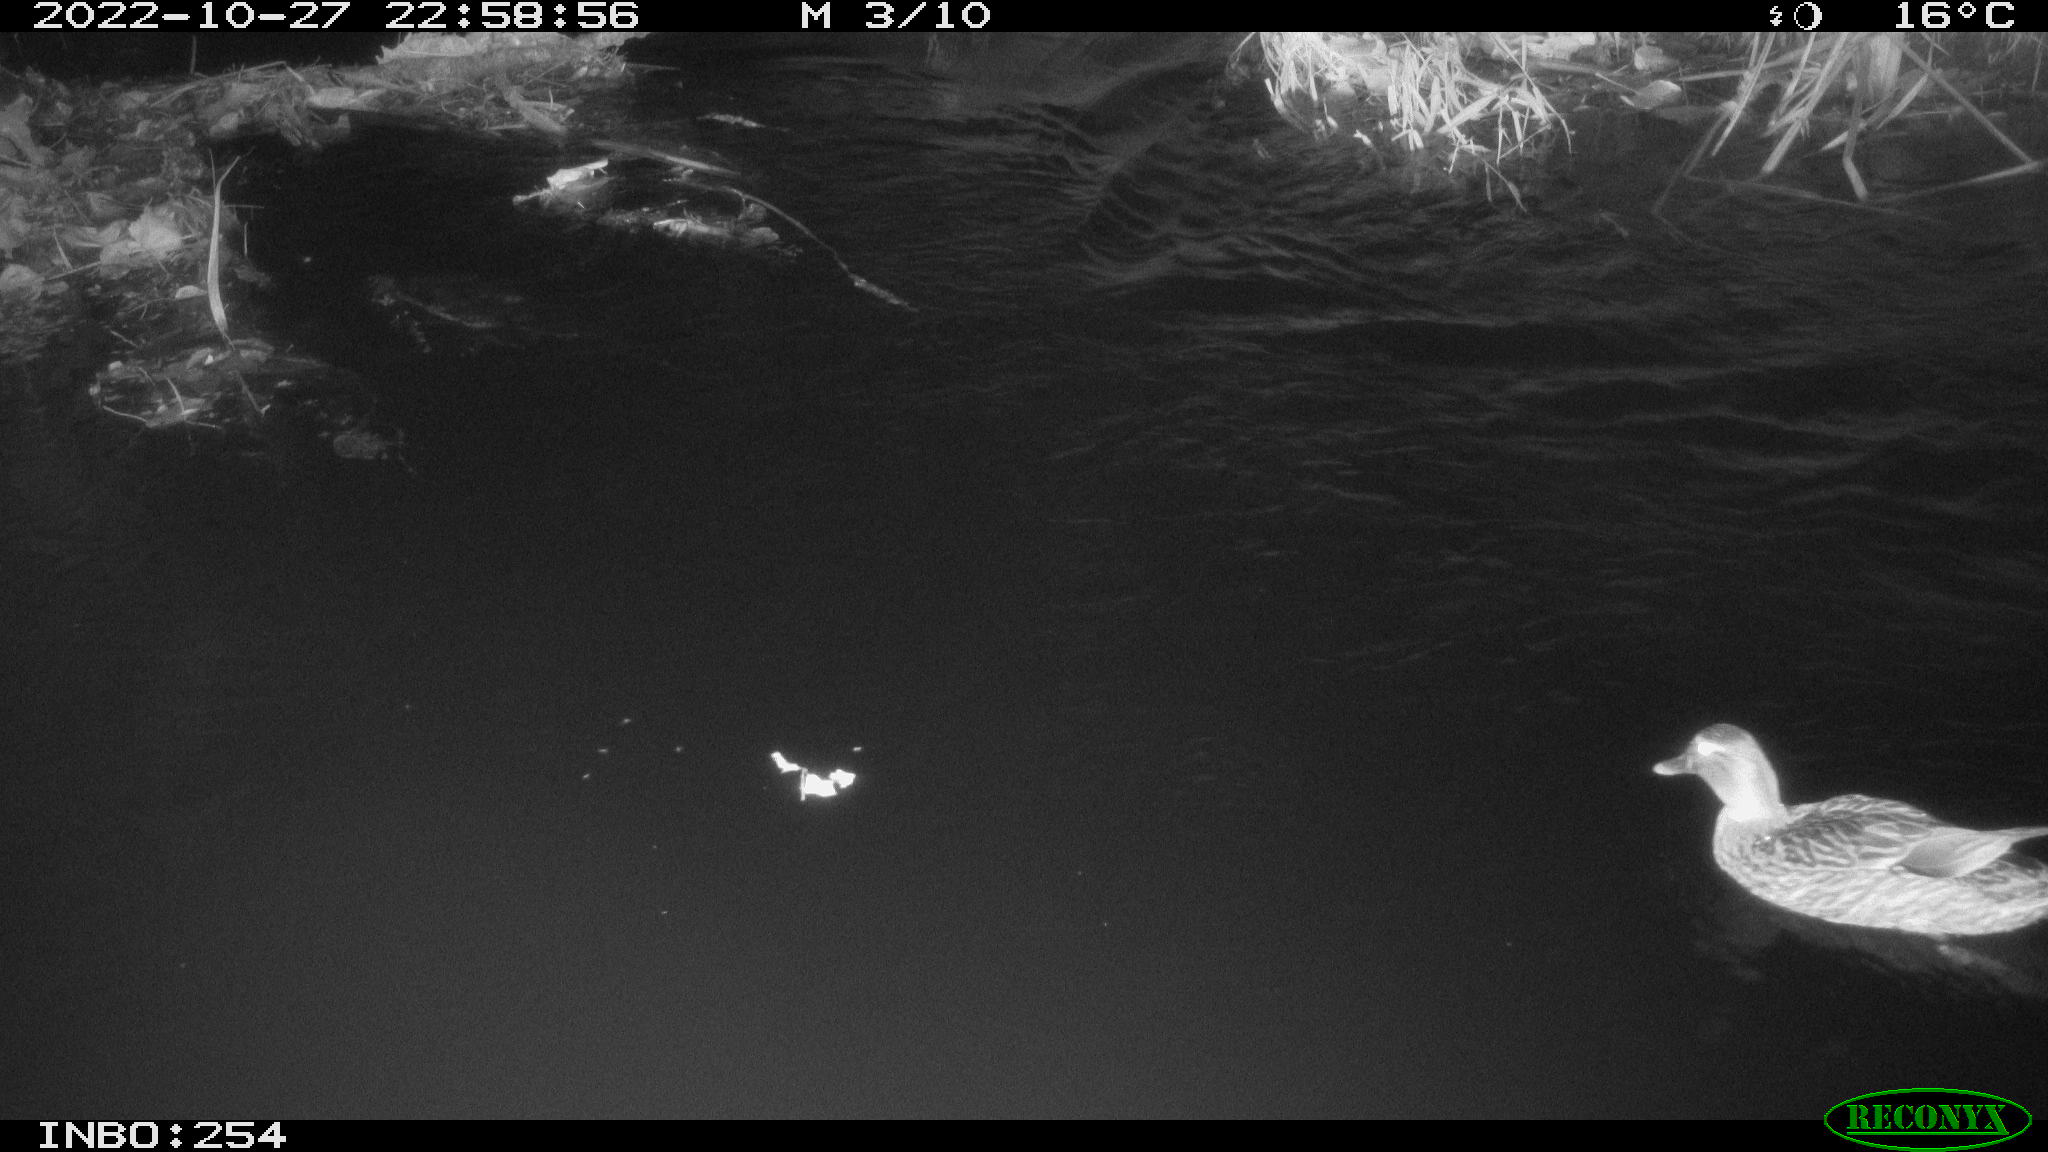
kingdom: Animalia
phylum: Chordata
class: Aves
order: Anseriformes
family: Anatidae
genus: Anas
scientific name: Anas
